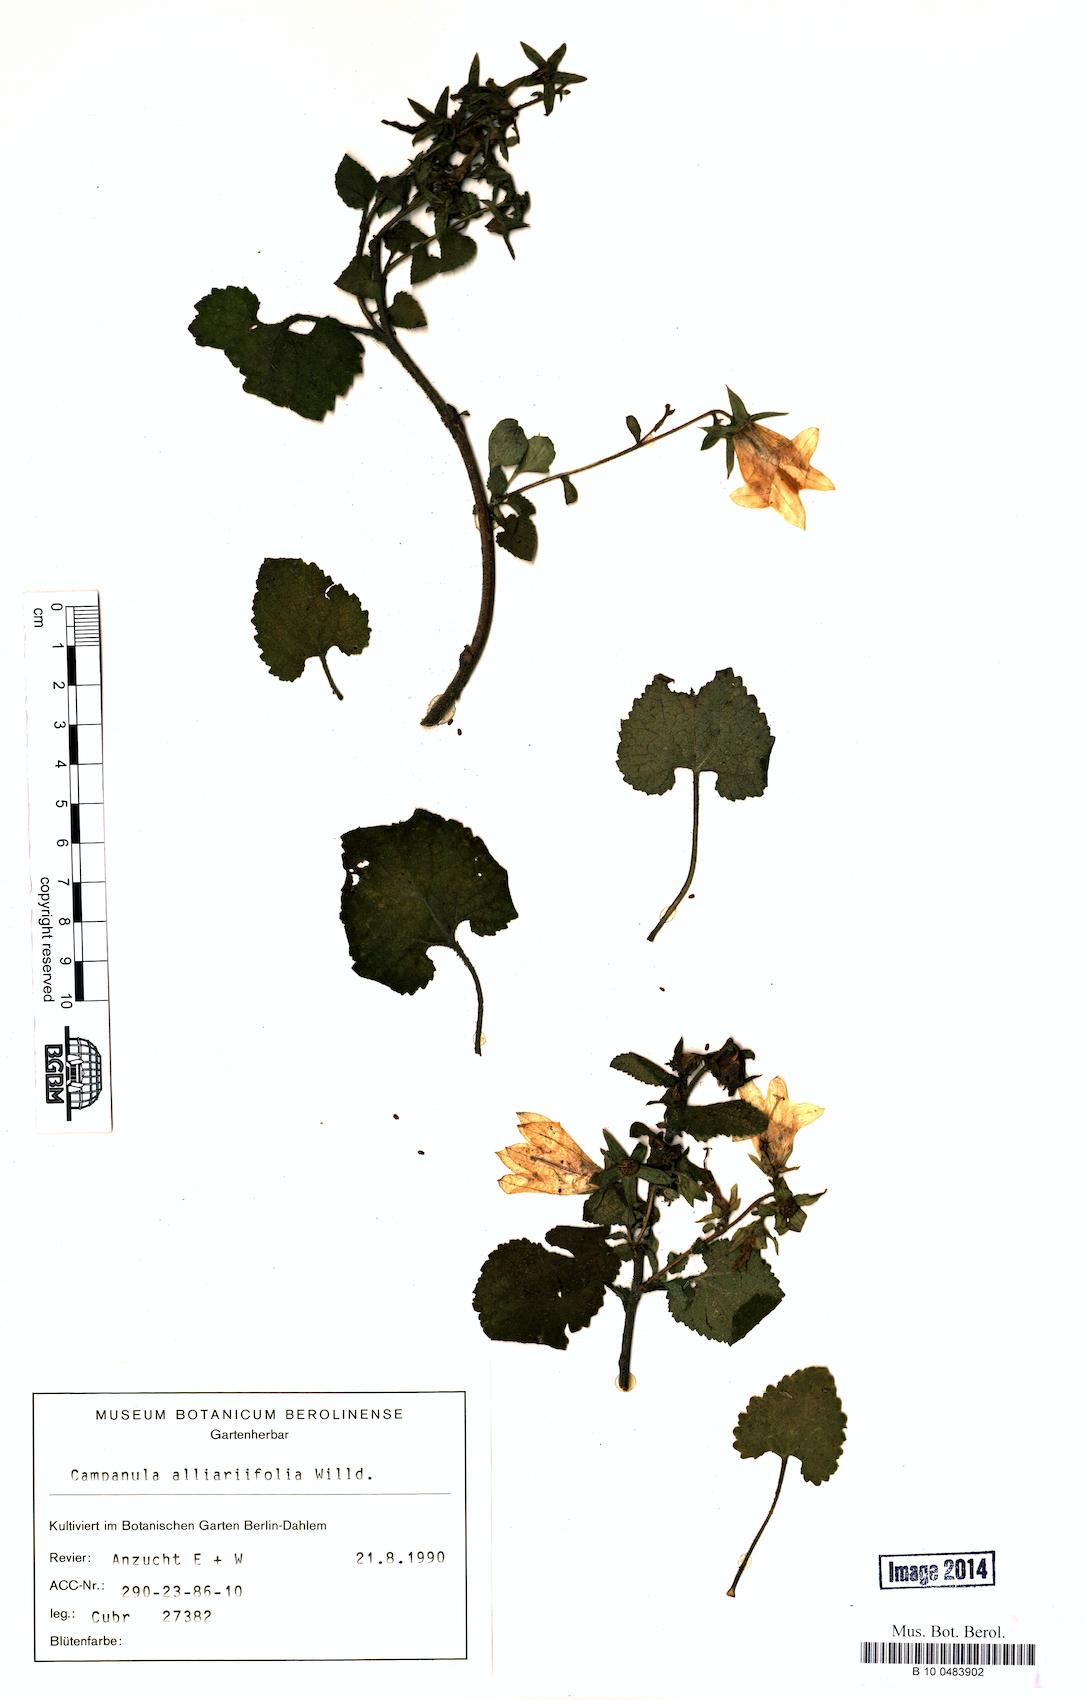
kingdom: Plantae
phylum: Tracheophyta
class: Magnoliopsida
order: Asterales
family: Campanulaceae
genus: Campanula
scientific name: Campanula alliariifolia
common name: Cornish bellflower
